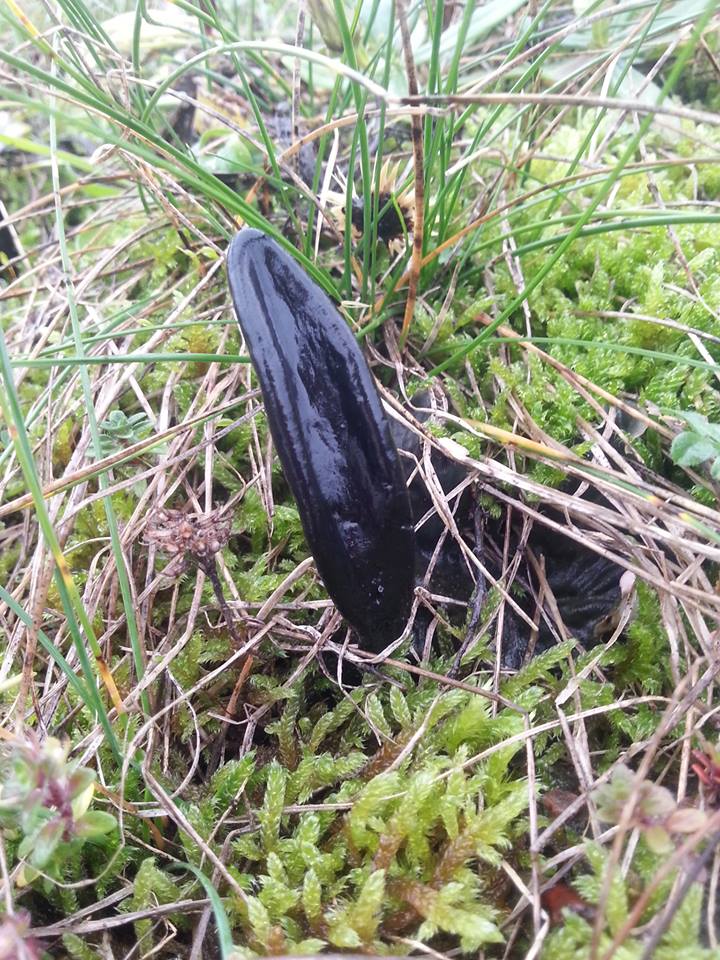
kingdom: Fungi
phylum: Ascomycota
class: Geoglossomycetes
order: Geoglossales
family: Geoglossaceae
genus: Geoglossum
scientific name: Geoglossum cookeianum
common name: bred jordtunge
